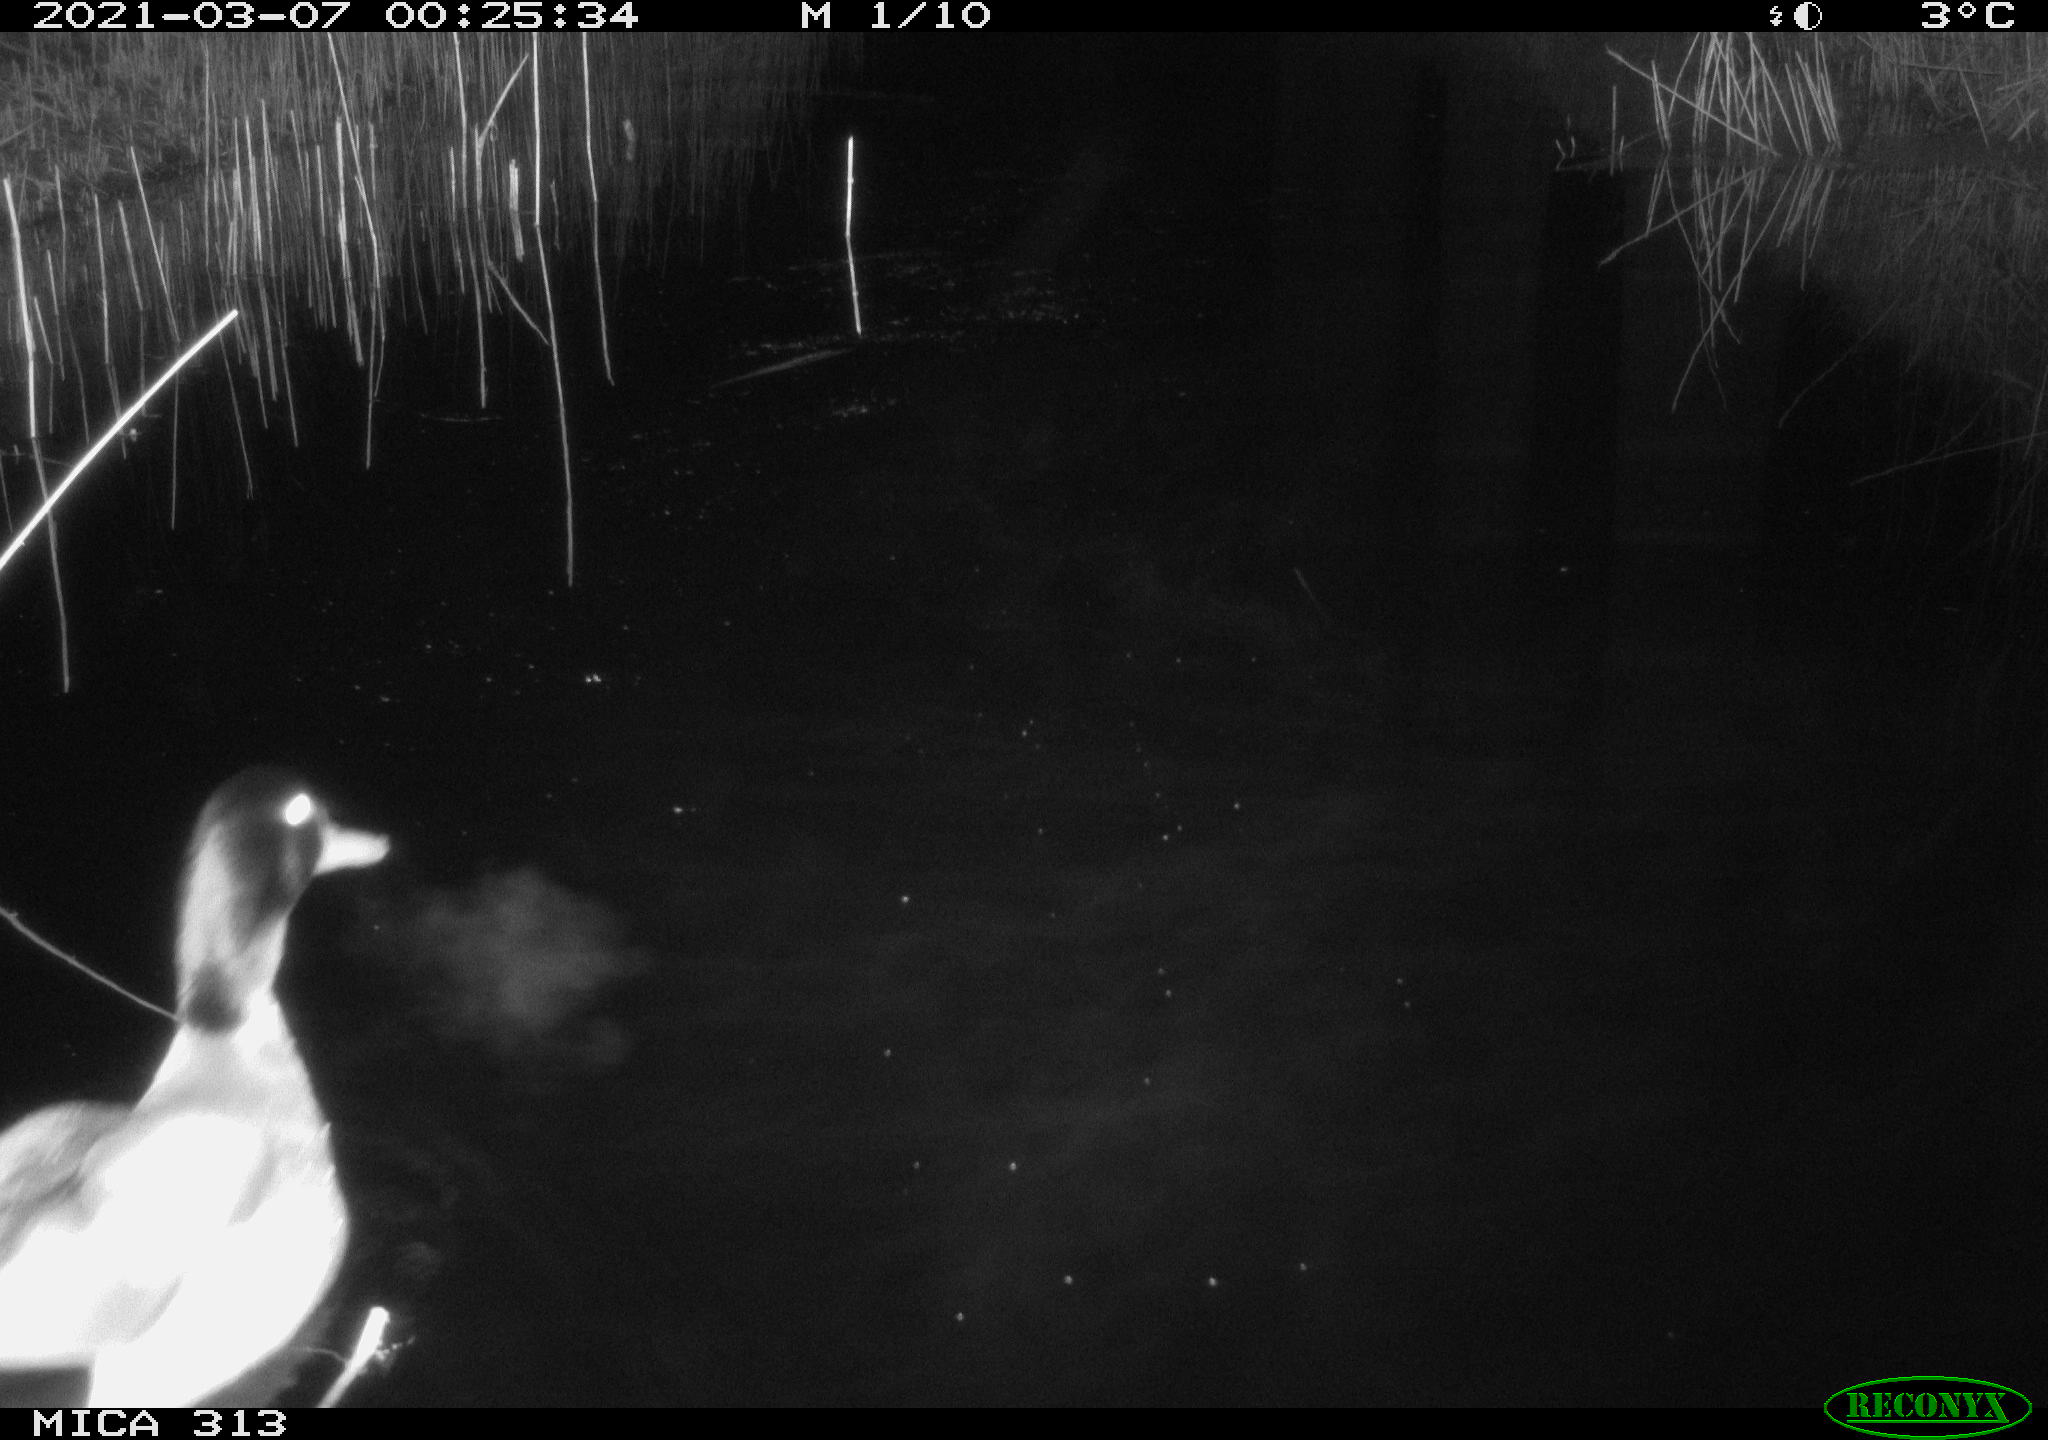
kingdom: Animalia
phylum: Chordata
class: Aves
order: Anseriformes
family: Anatidae
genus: Anas
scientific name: Anas platyrhynchos
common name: Mallard
